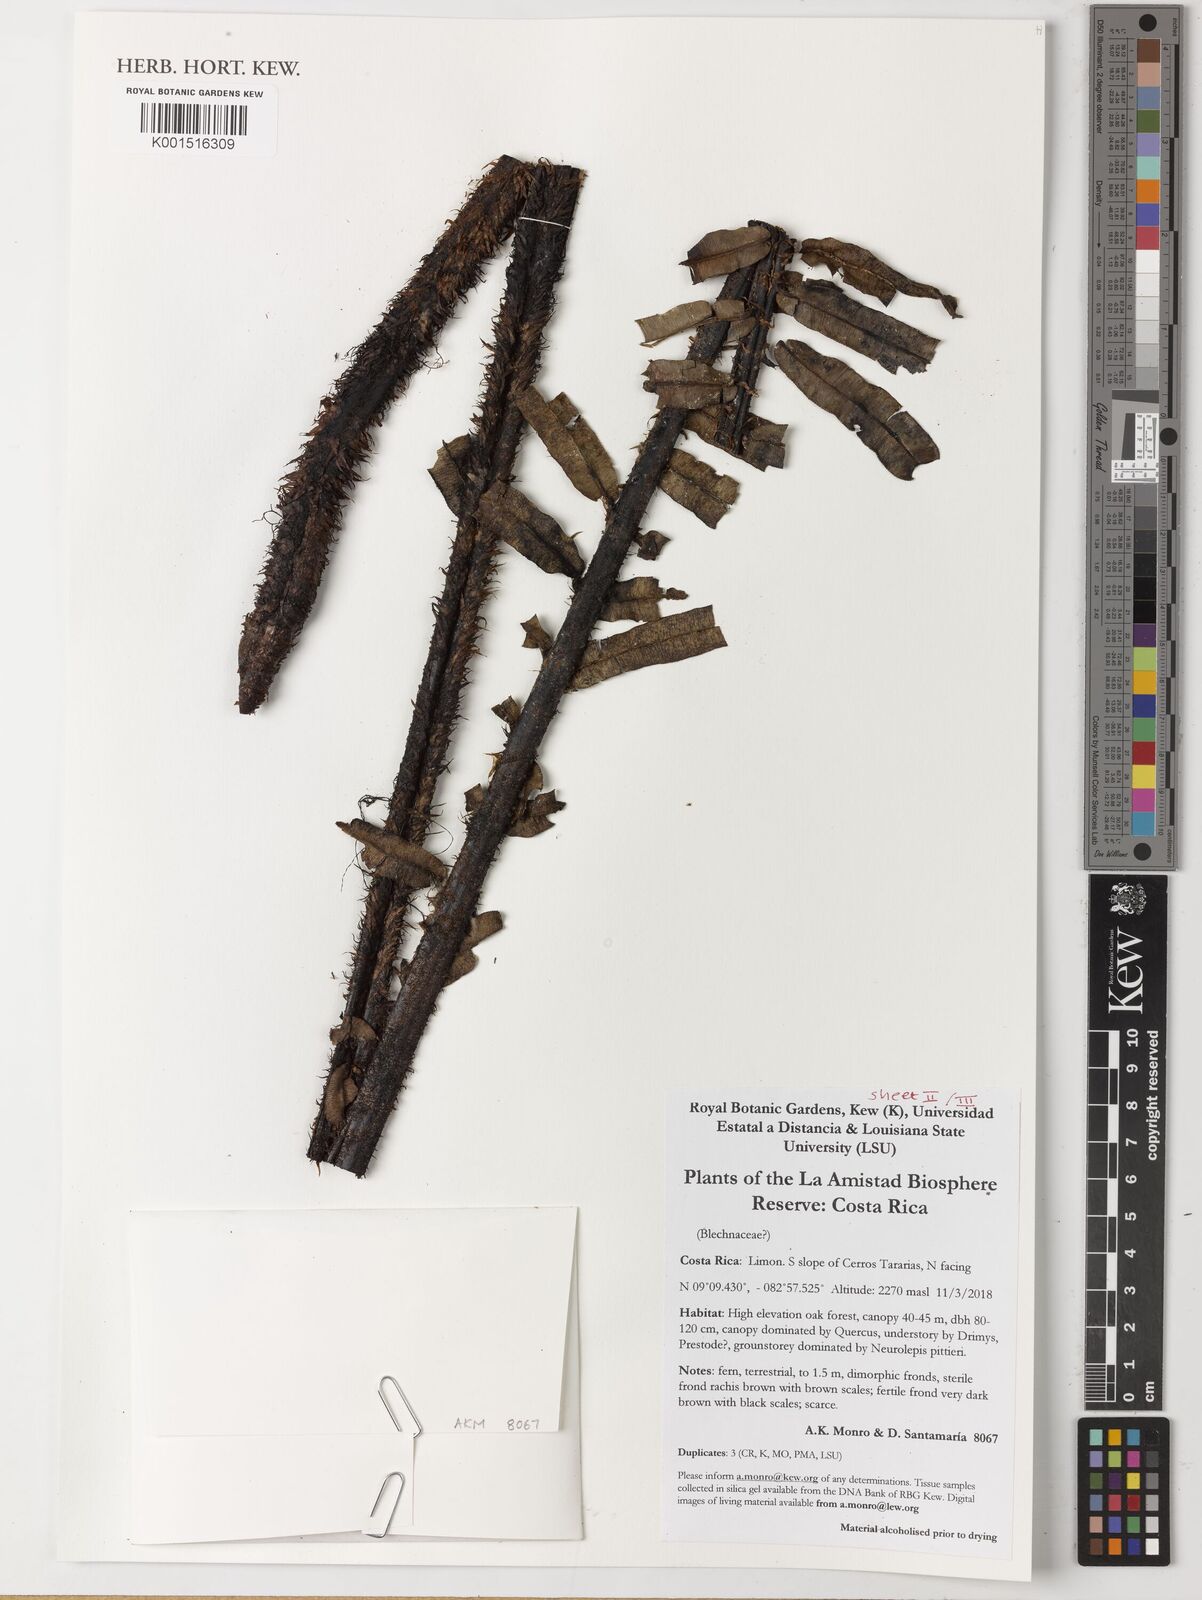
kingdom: Plantae
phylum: Tracheophyta
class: Polypodiopsida
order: Polypodiales
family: Blechnaceae
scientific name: Blechnaceae
